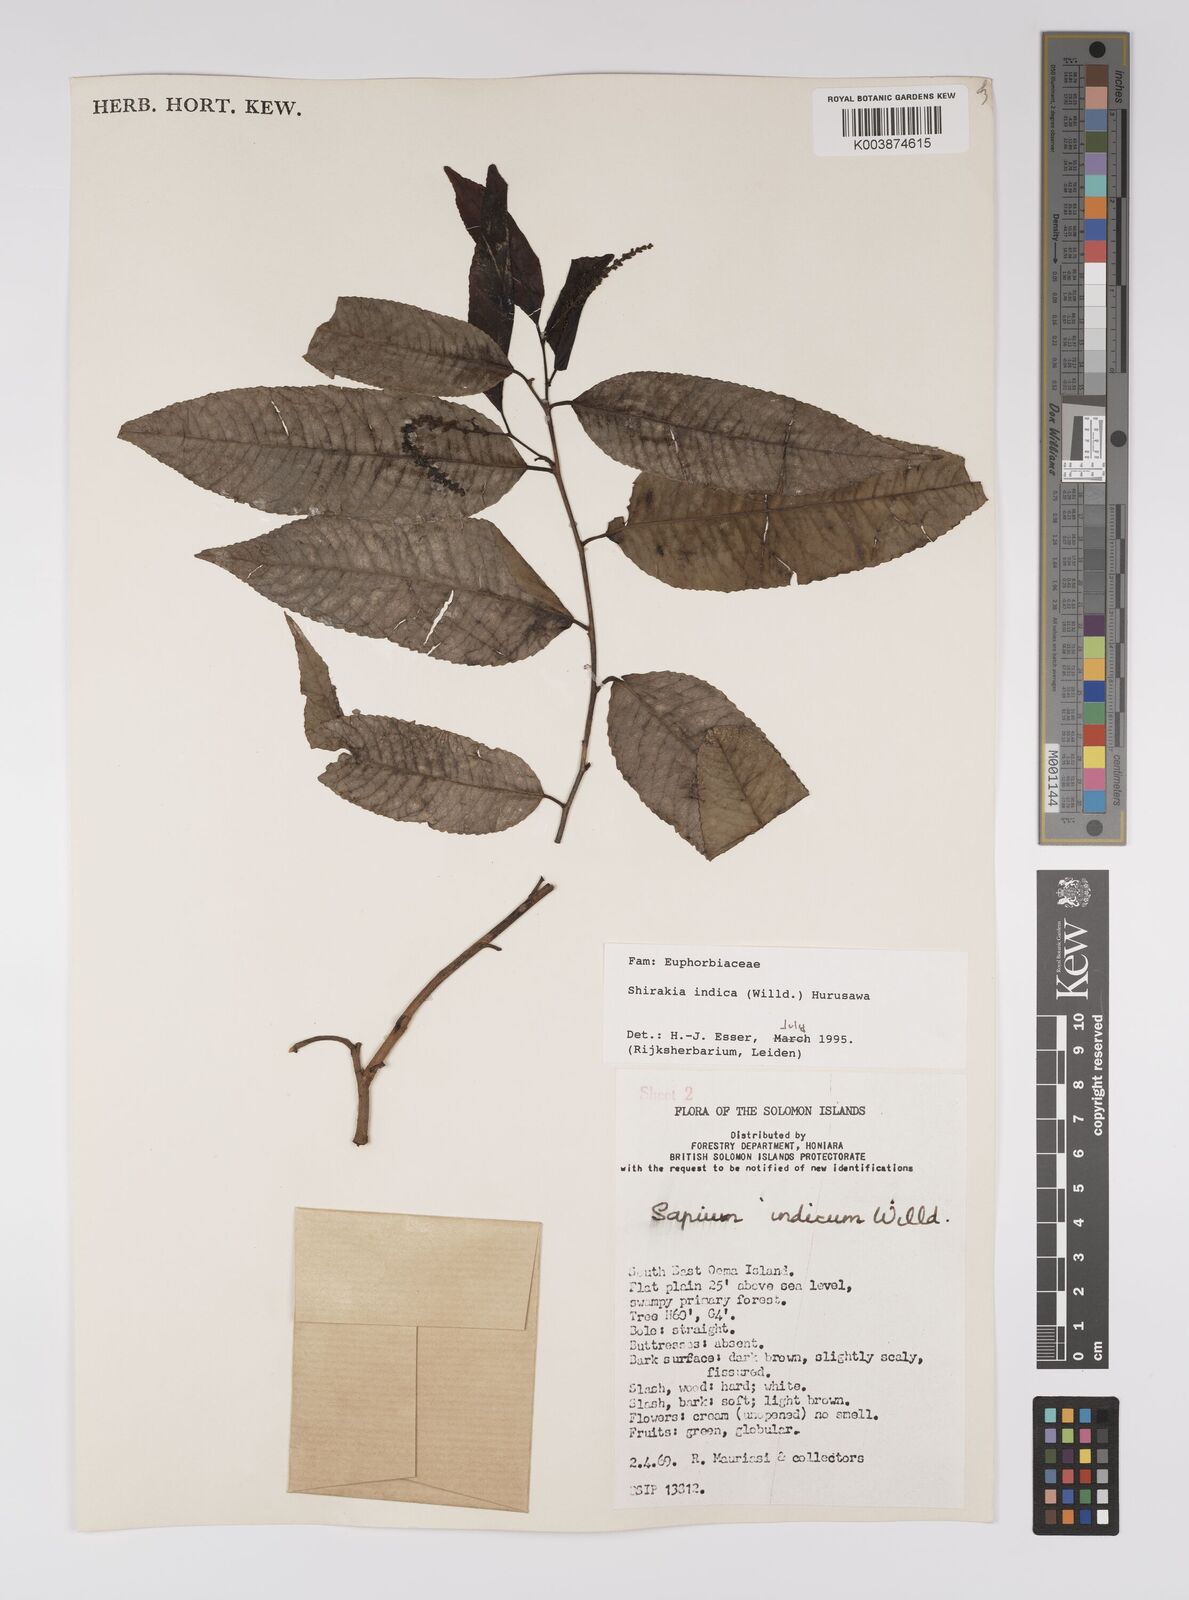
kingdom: Plantae
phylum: Tracheophyta
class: Magnoliopsida
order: Malpighiales
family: Euphorbiaceae
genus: Shirakiopsis
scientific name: Shirakiopsis indica
